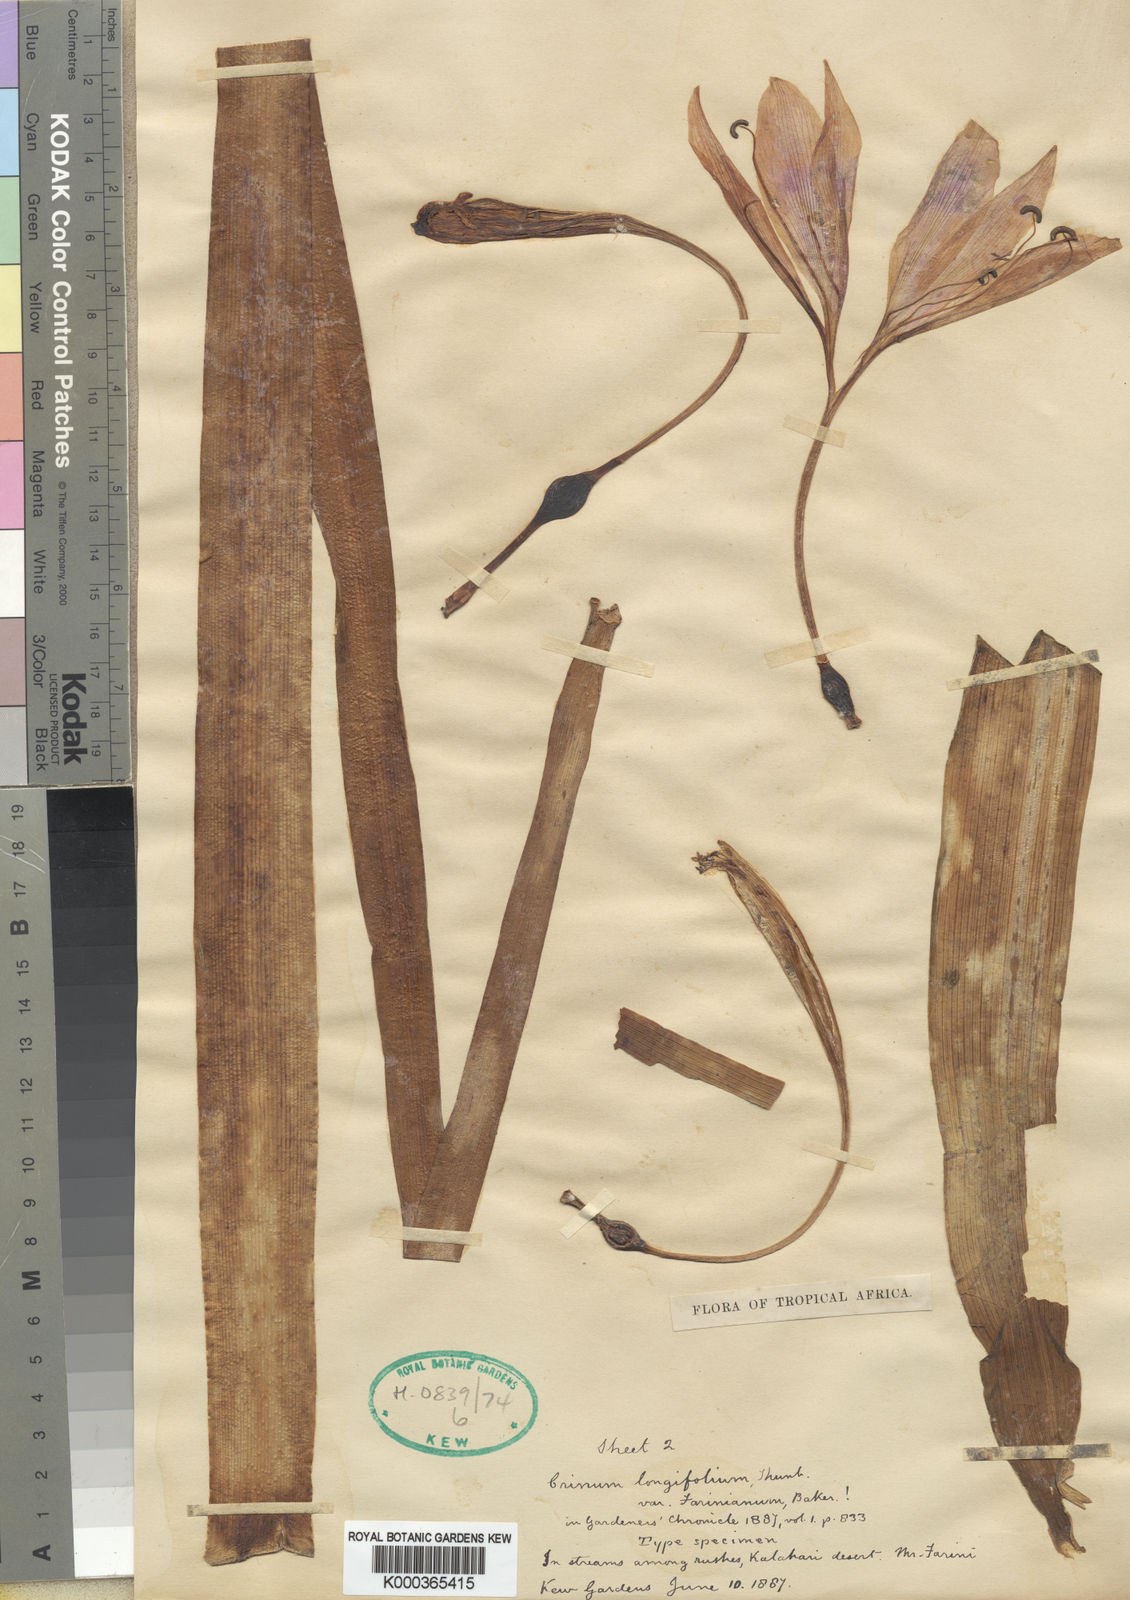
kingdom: Plantae
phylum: Tracheophyta
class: Liliopsida
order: Asparagales
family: Amaryllidaceae
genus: Crinum
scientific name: Crinum bulbispermum
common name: Hardy swamplily
